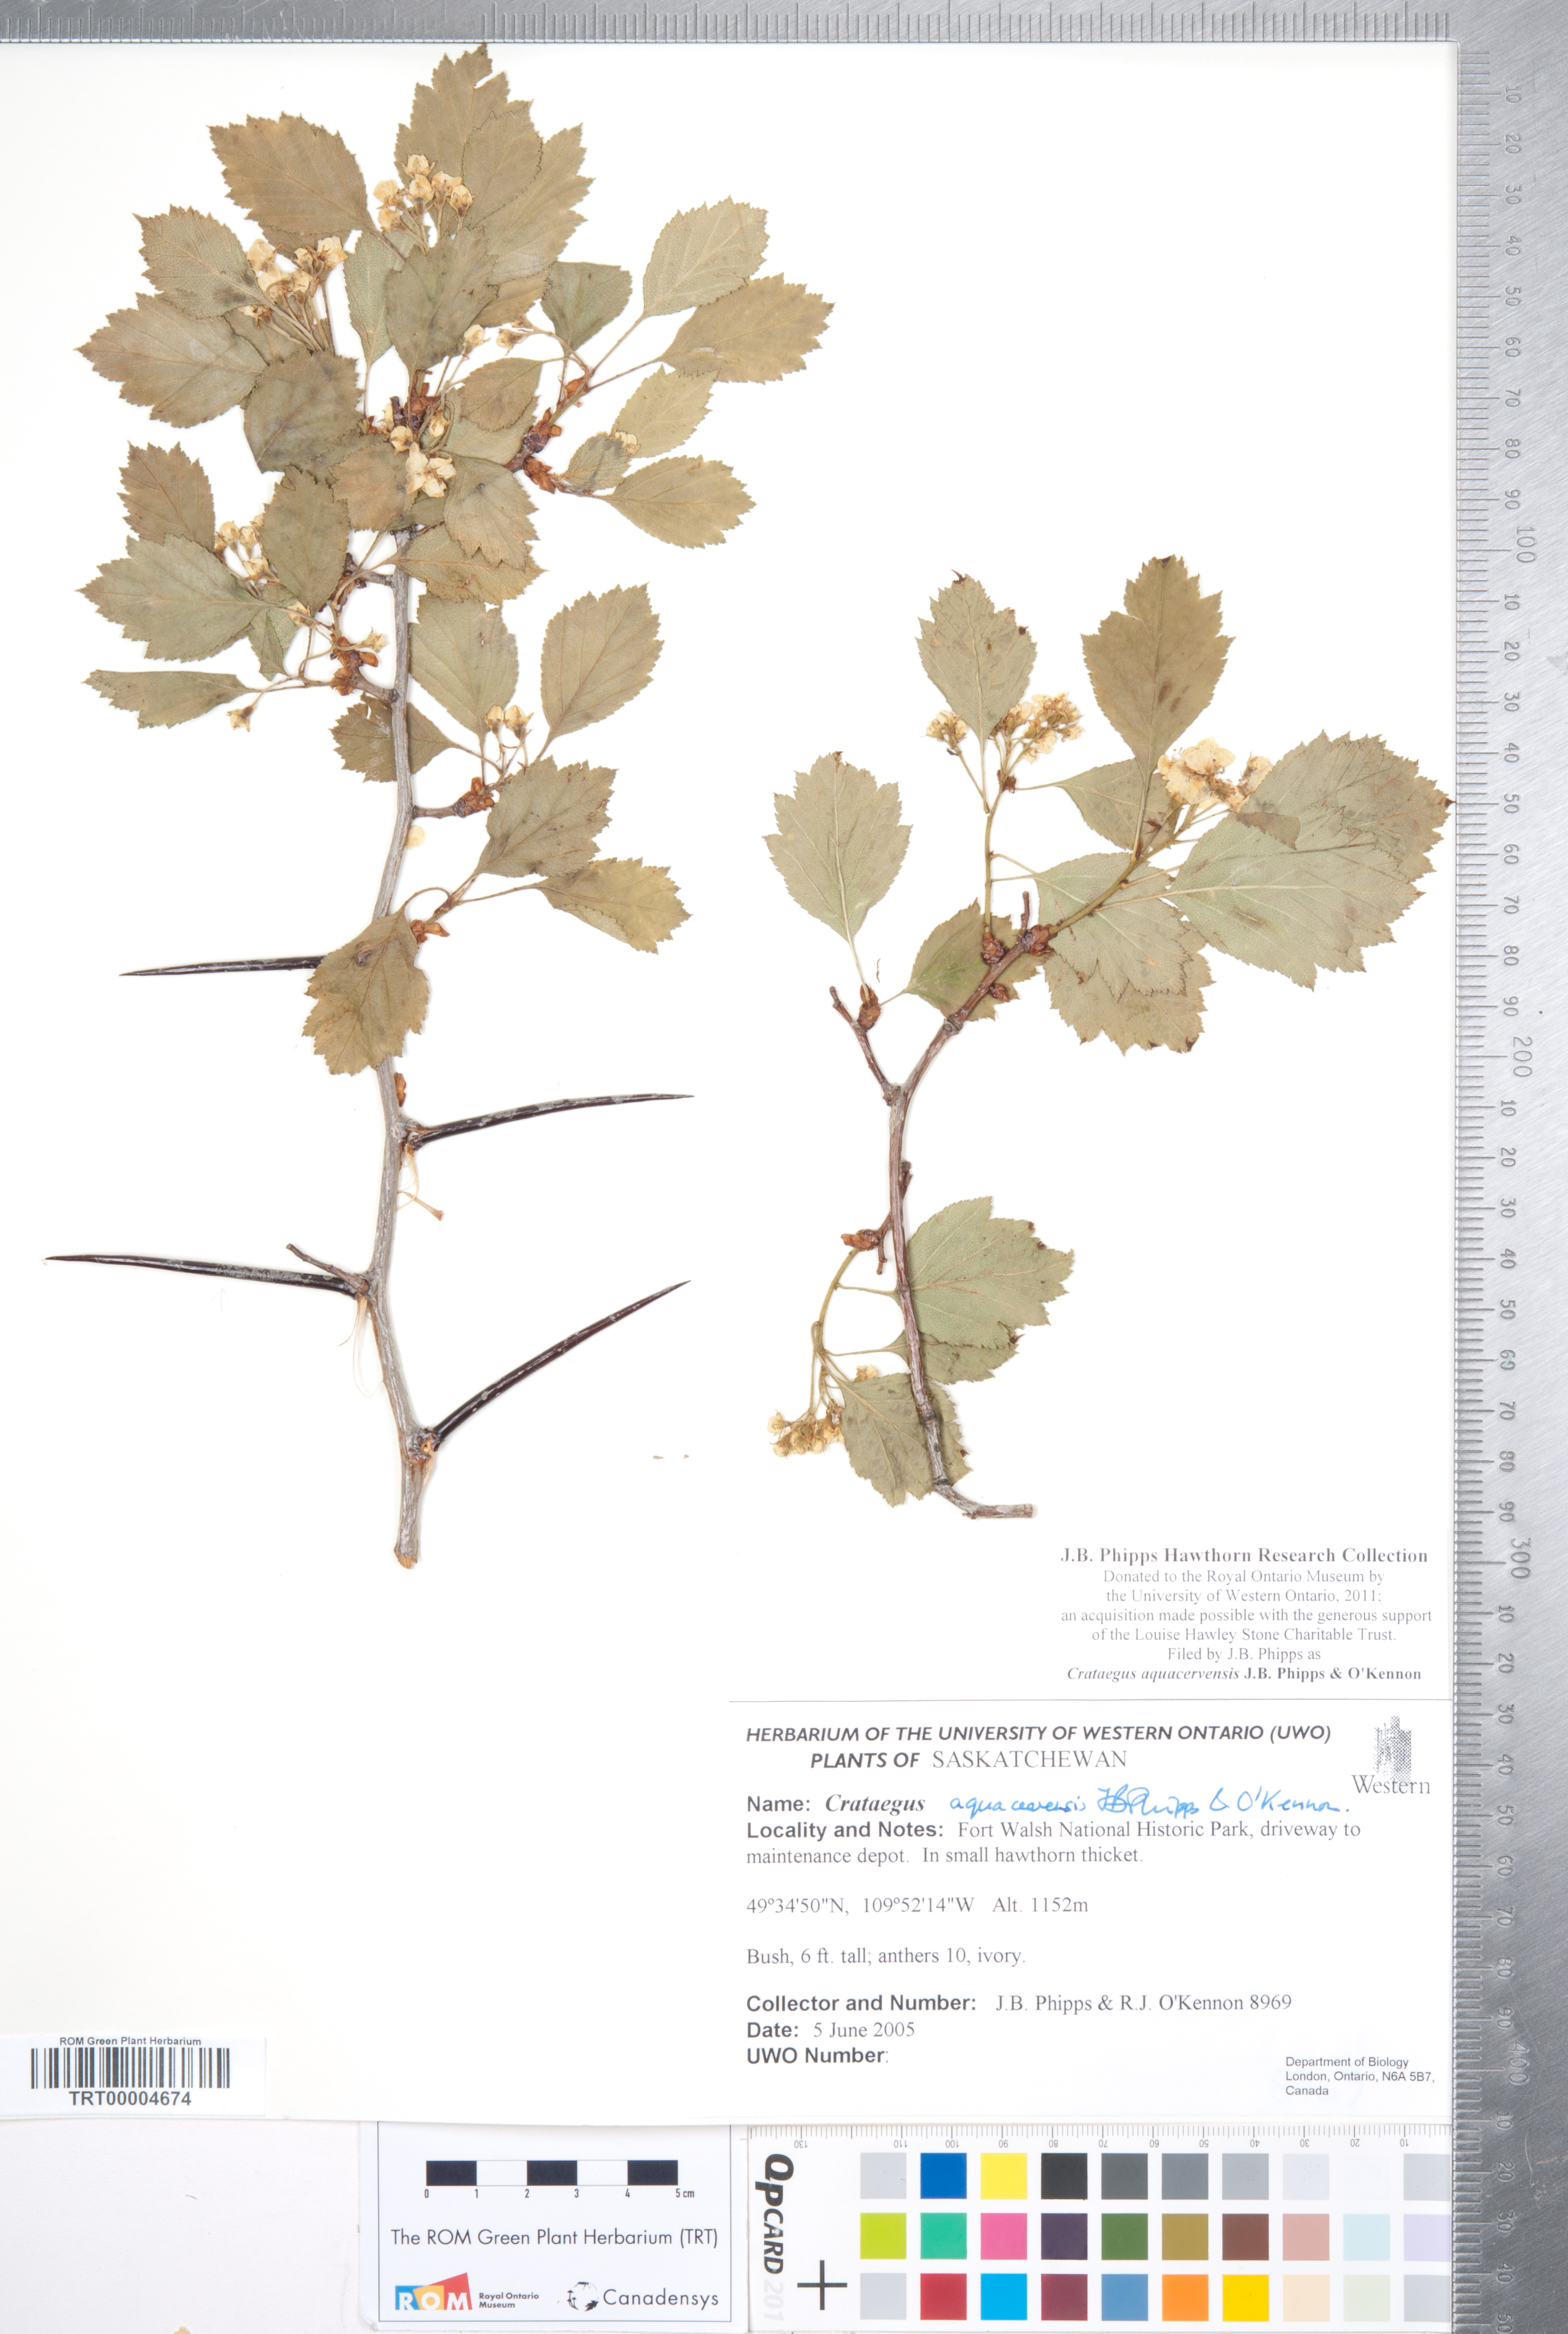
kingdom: Plantae
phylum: Tracheophyta
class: Magnoliopsida
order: Rosales
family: Rosaceae
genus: Crataegus
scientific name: Crataegus aquacervensis
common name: Elkwater hawthorn
